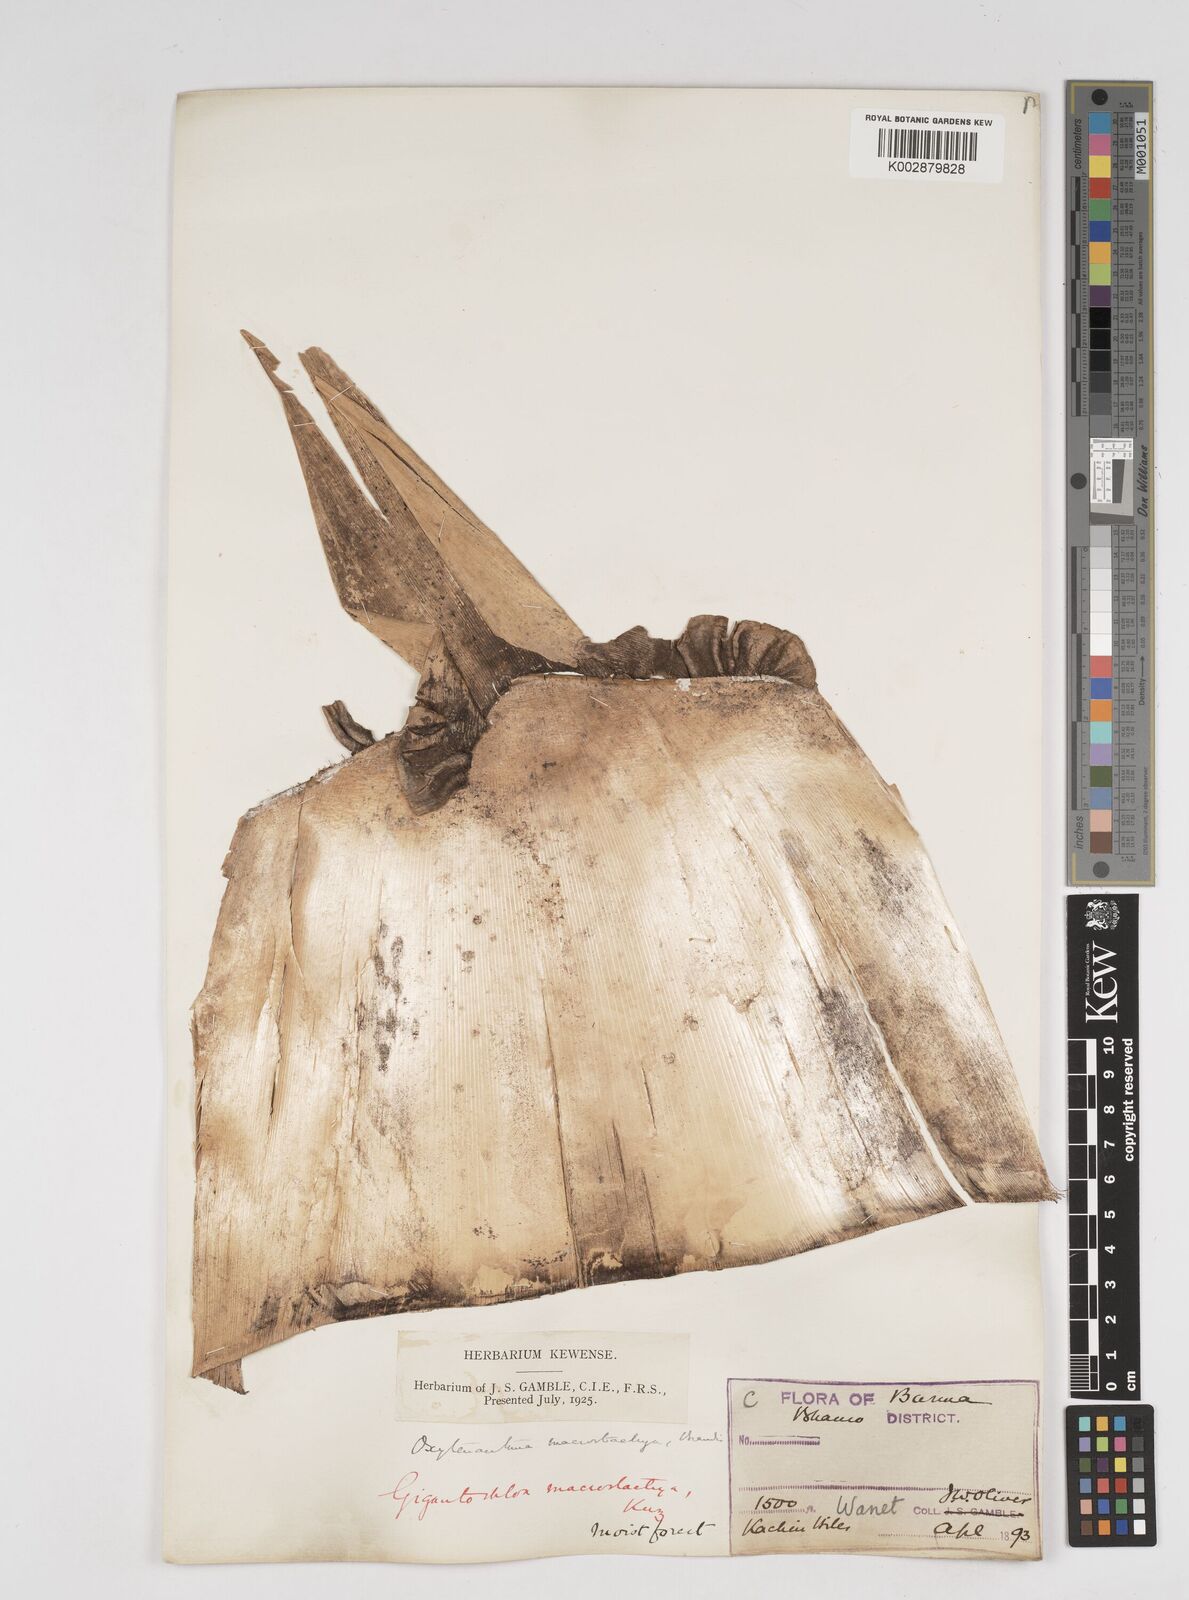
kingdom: Plantae
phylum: Tracheophyta
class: Liliopsida
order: Poales
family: Poaceae
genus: Gigantochloa
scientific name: Gigantochloa macrostachya
